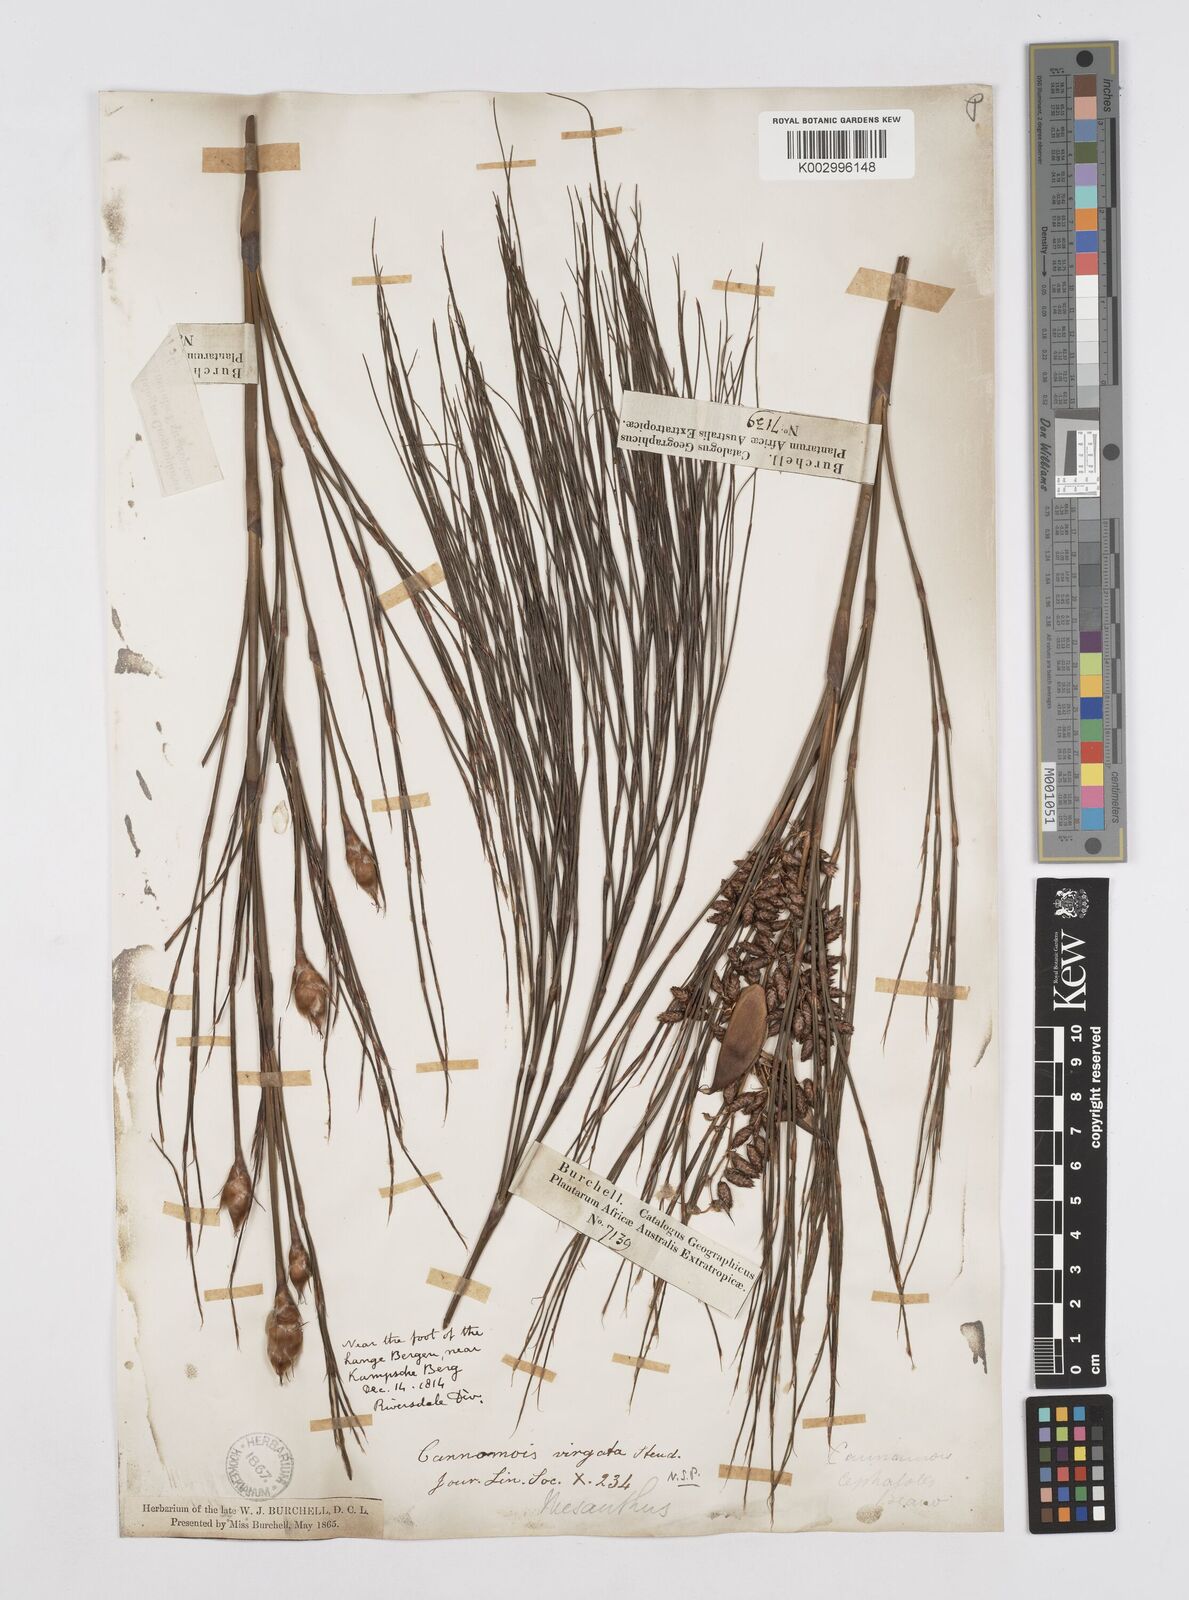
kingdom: Plantae
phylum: Tracheophyta
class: Liliopsida
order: Poales
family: Restionaceae
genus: Cannomois
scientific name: Cannomois virgata
